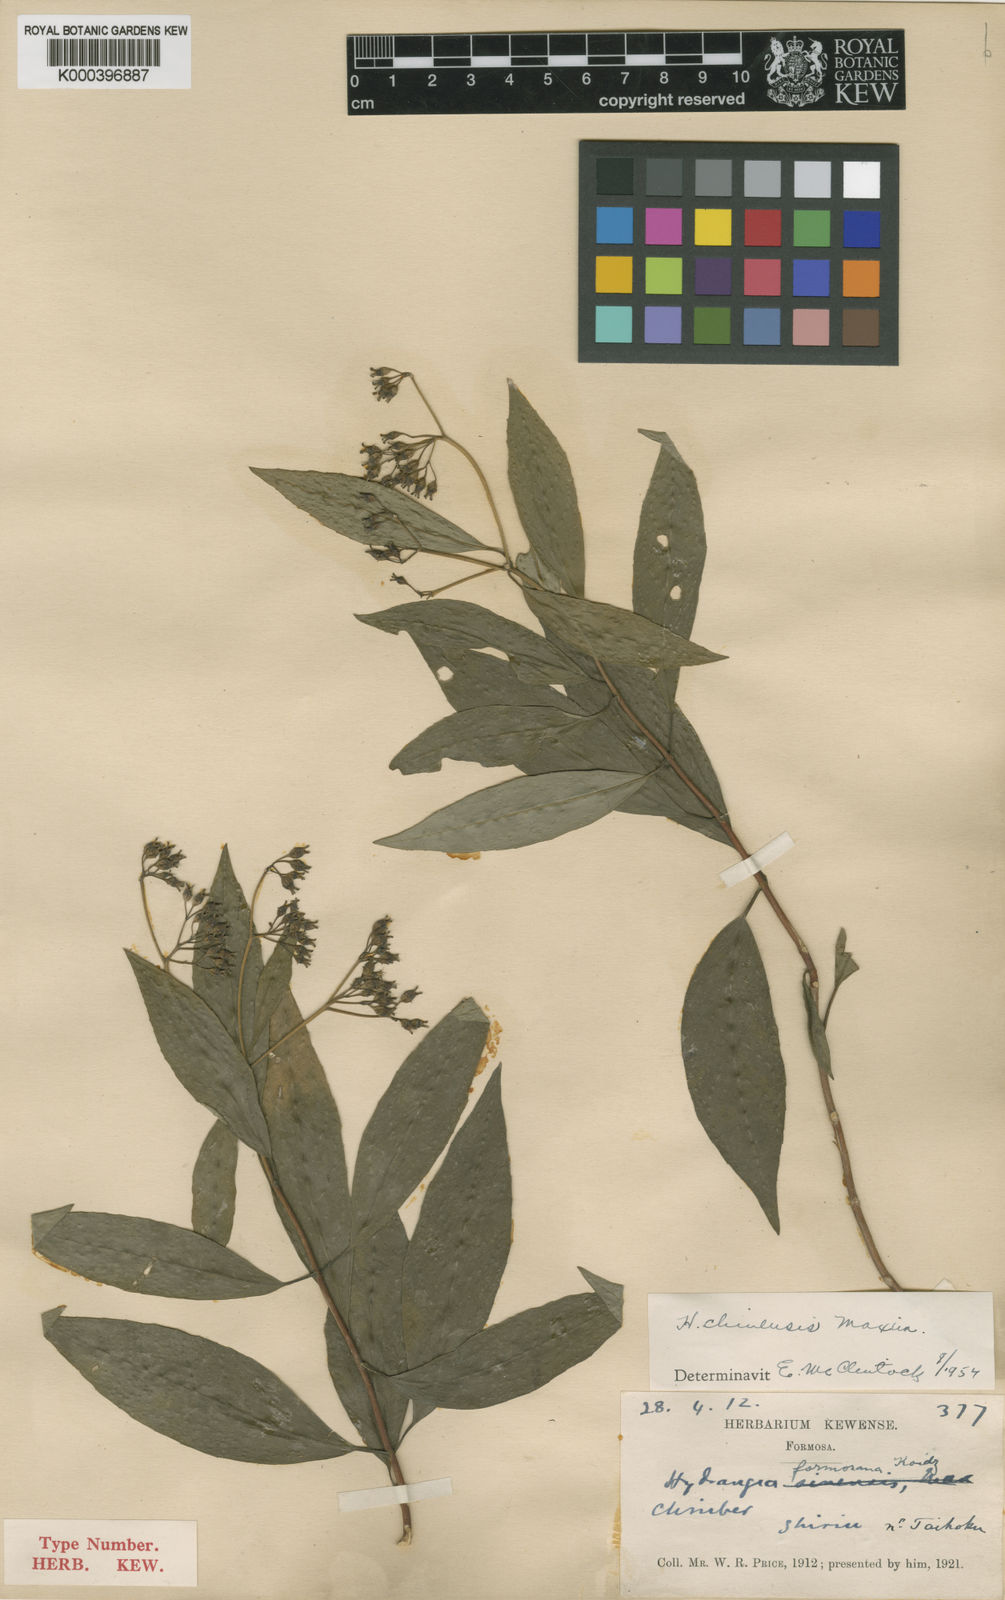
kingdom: Plantae
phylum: Tracheophyta
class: Magnoliopsida
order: Cornales
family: Hydrangeaceae
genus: Hydrangea
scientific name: Hydrangea chinensis
